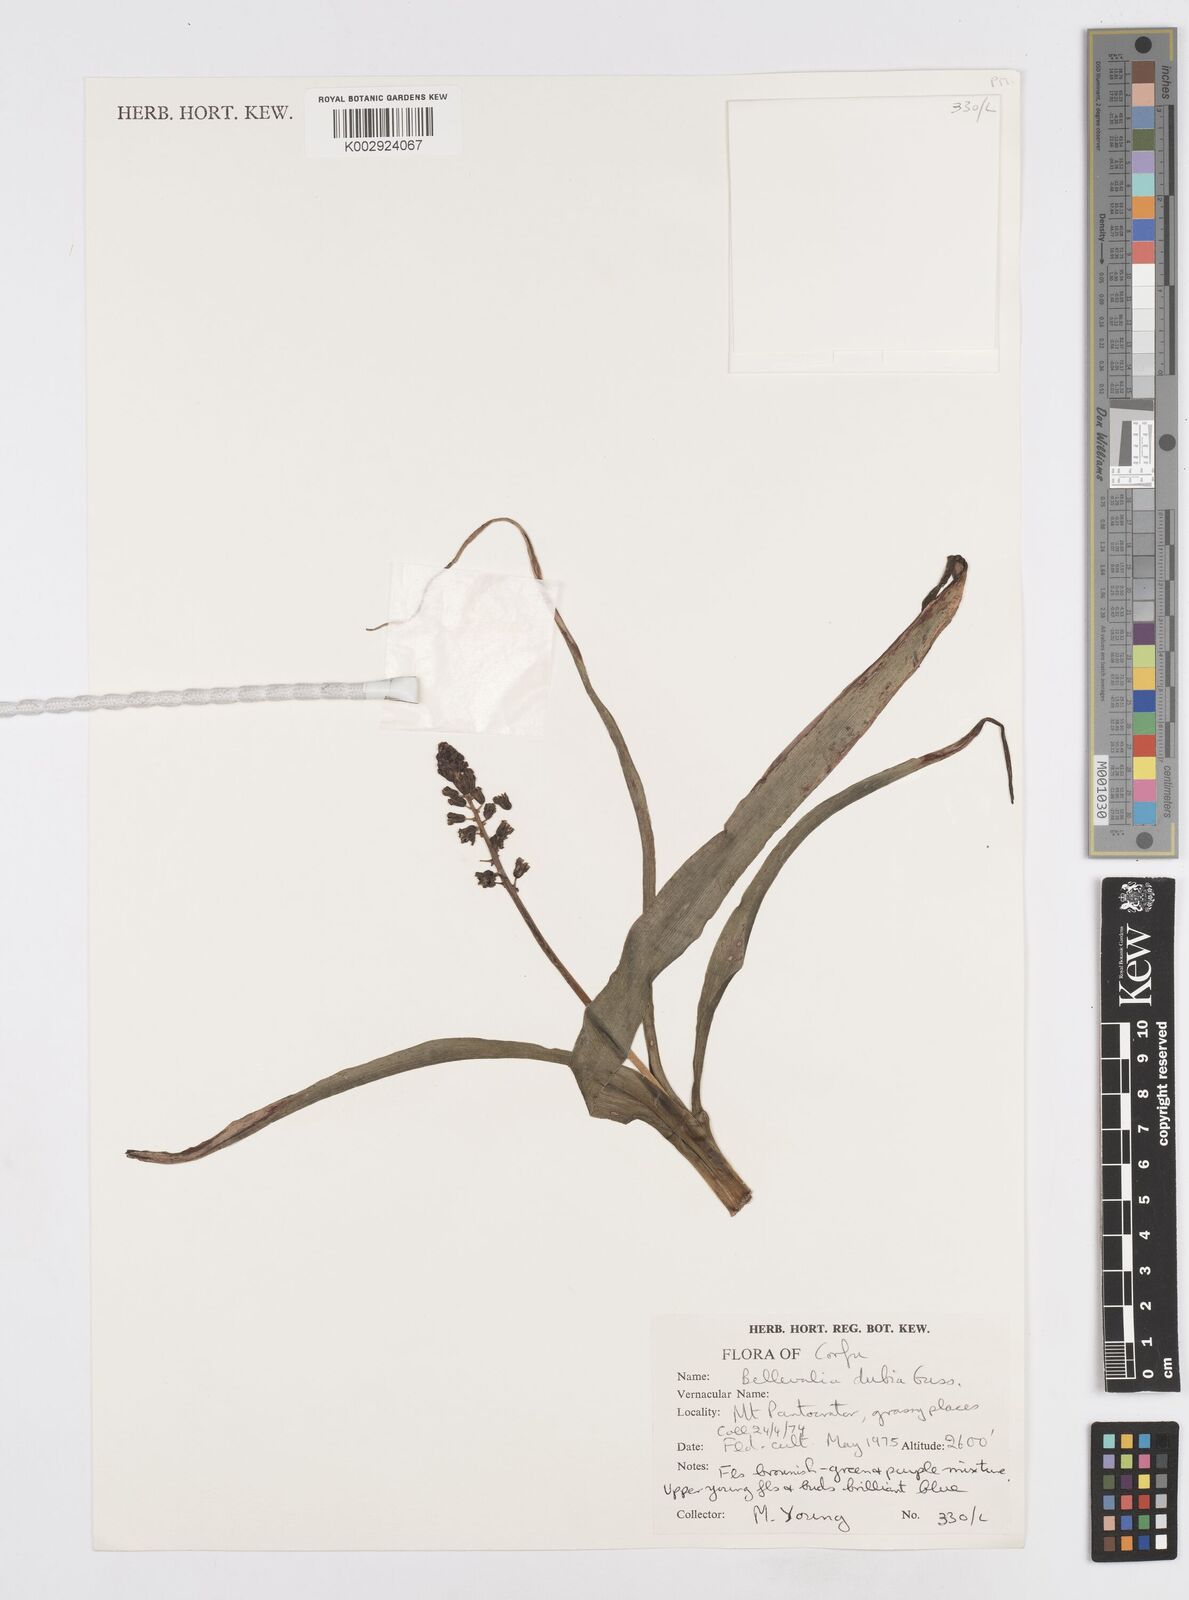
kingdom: Plantae
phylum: Tracheophyta
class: Liliopsida
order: Asparagales
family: Asparagaceae
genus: Bellevalia
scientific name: Bellevalia dubia
